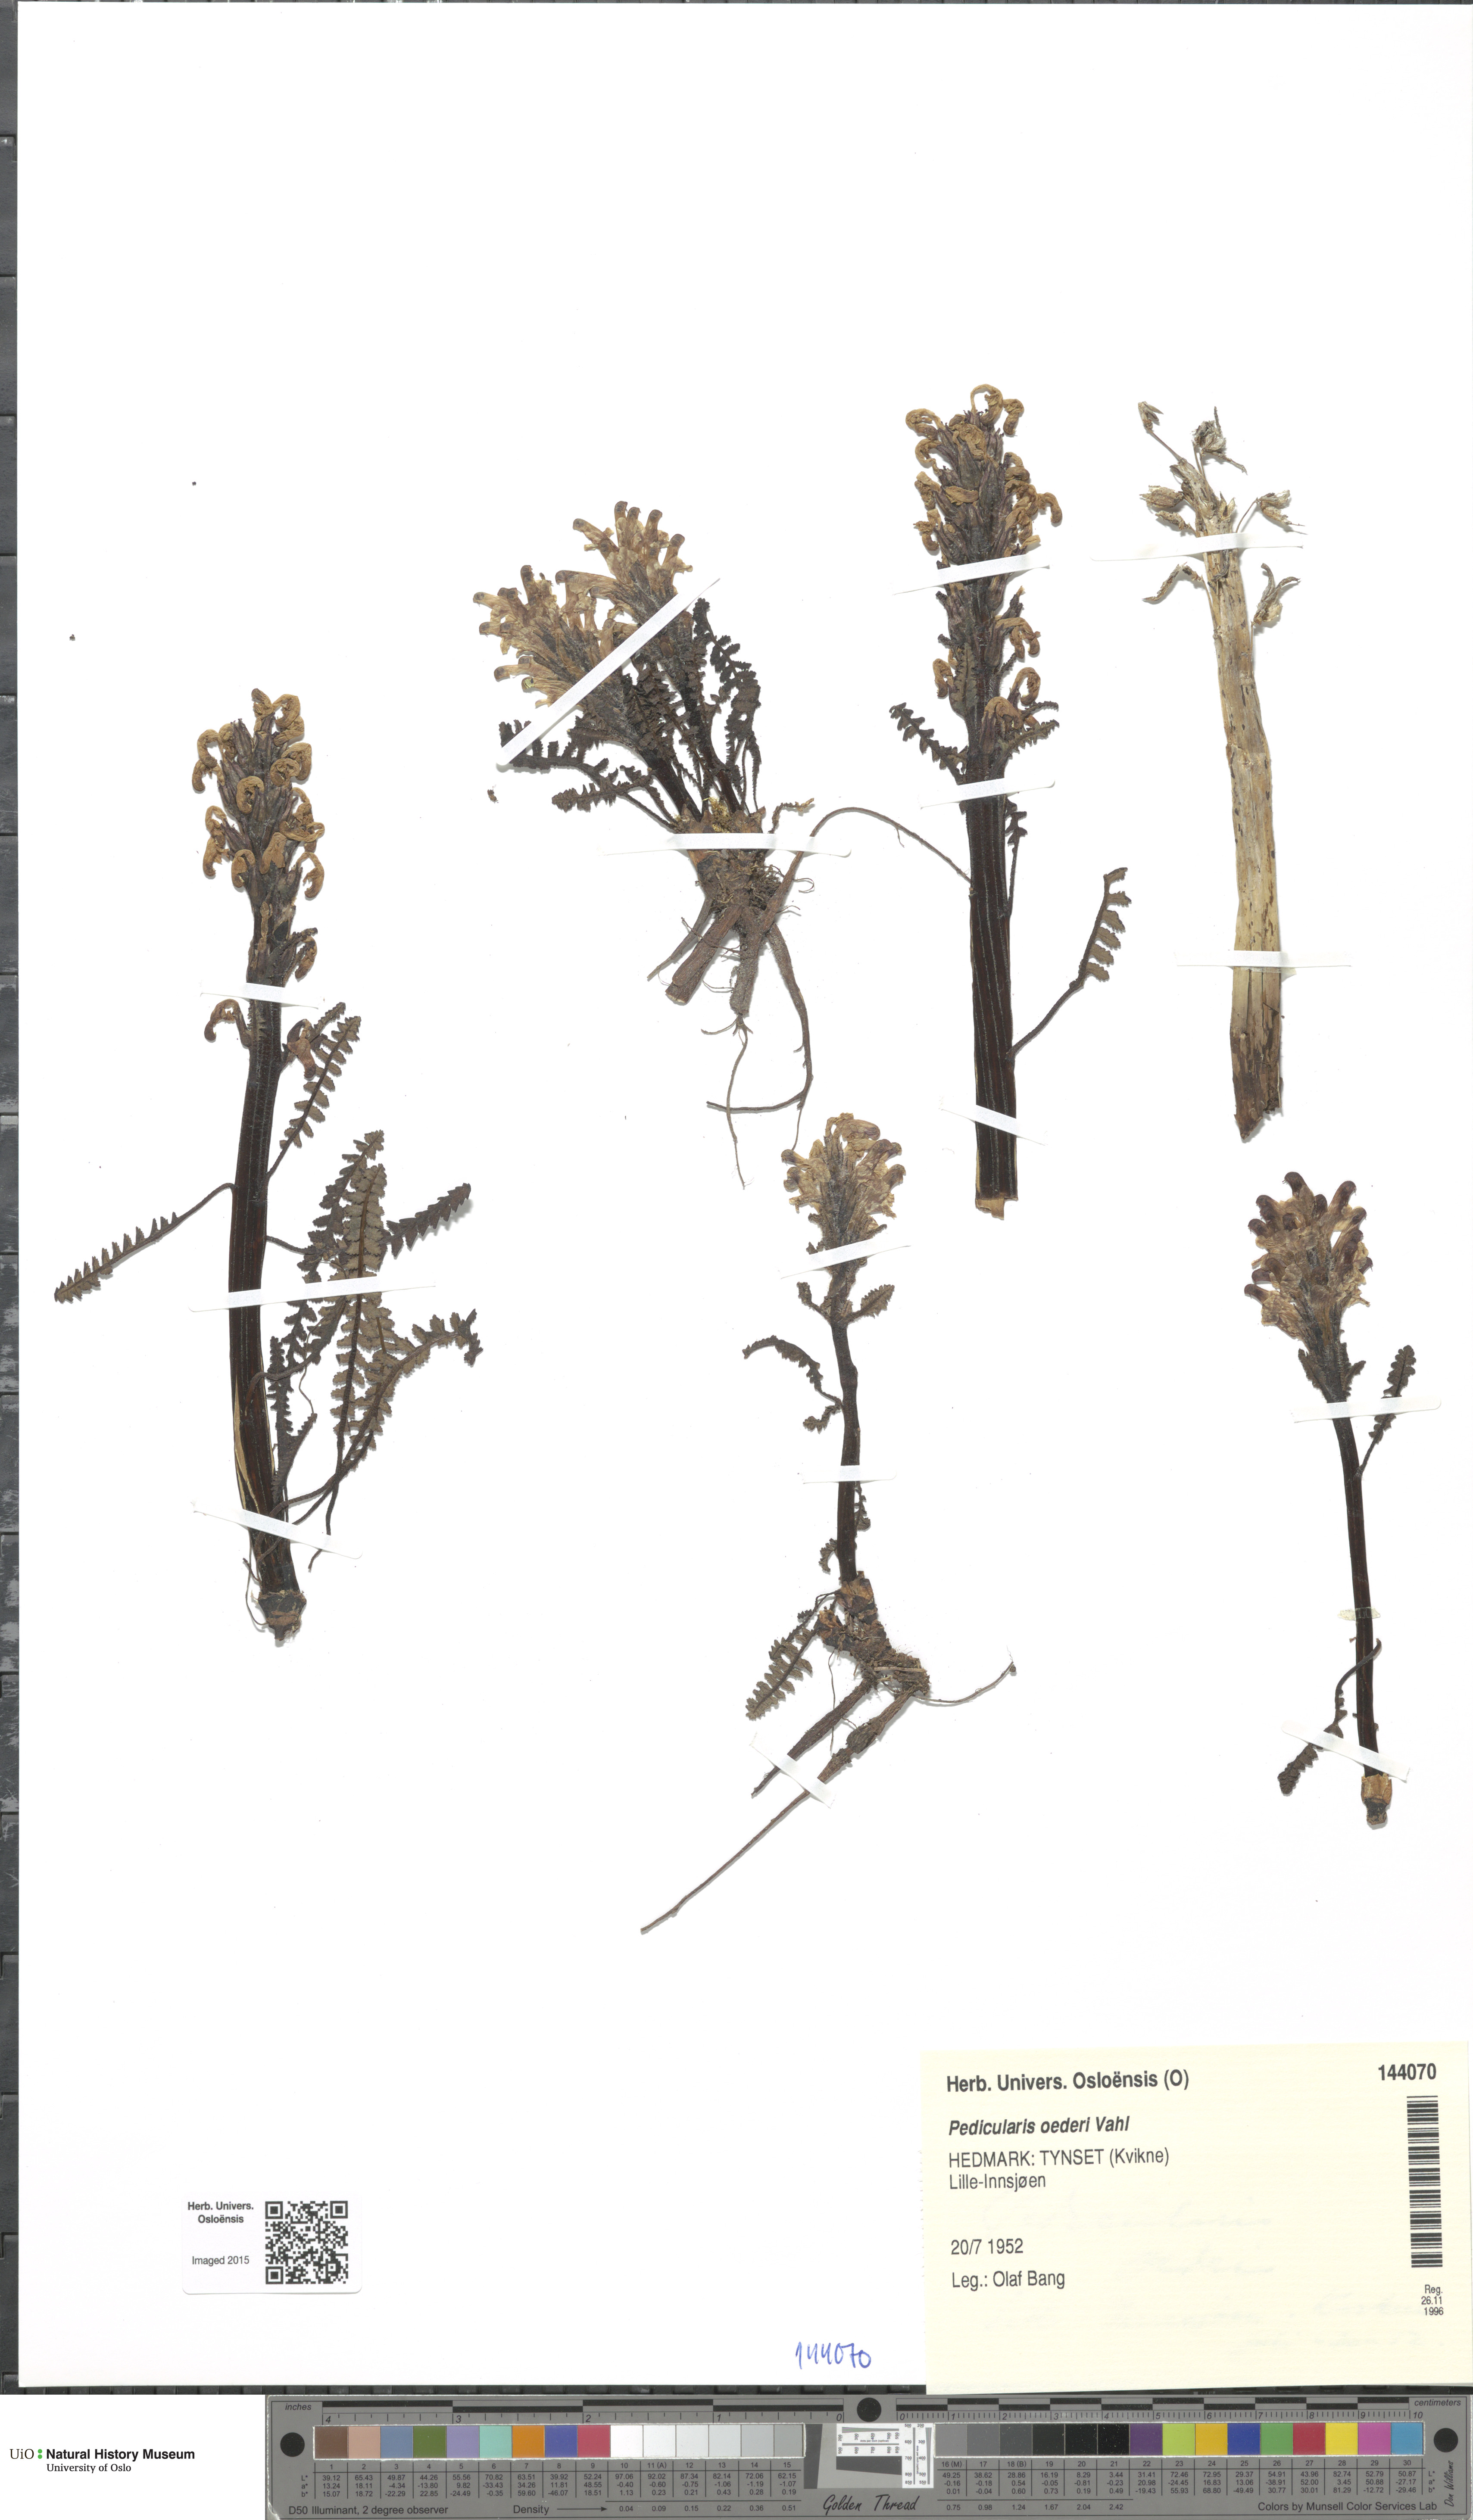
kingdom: Plantae
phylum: Tracheophyta
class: Magnoliopsida
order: Lamiales
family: Orobanchaceae
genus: Pedicularis
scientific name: Pedicularis oederi
